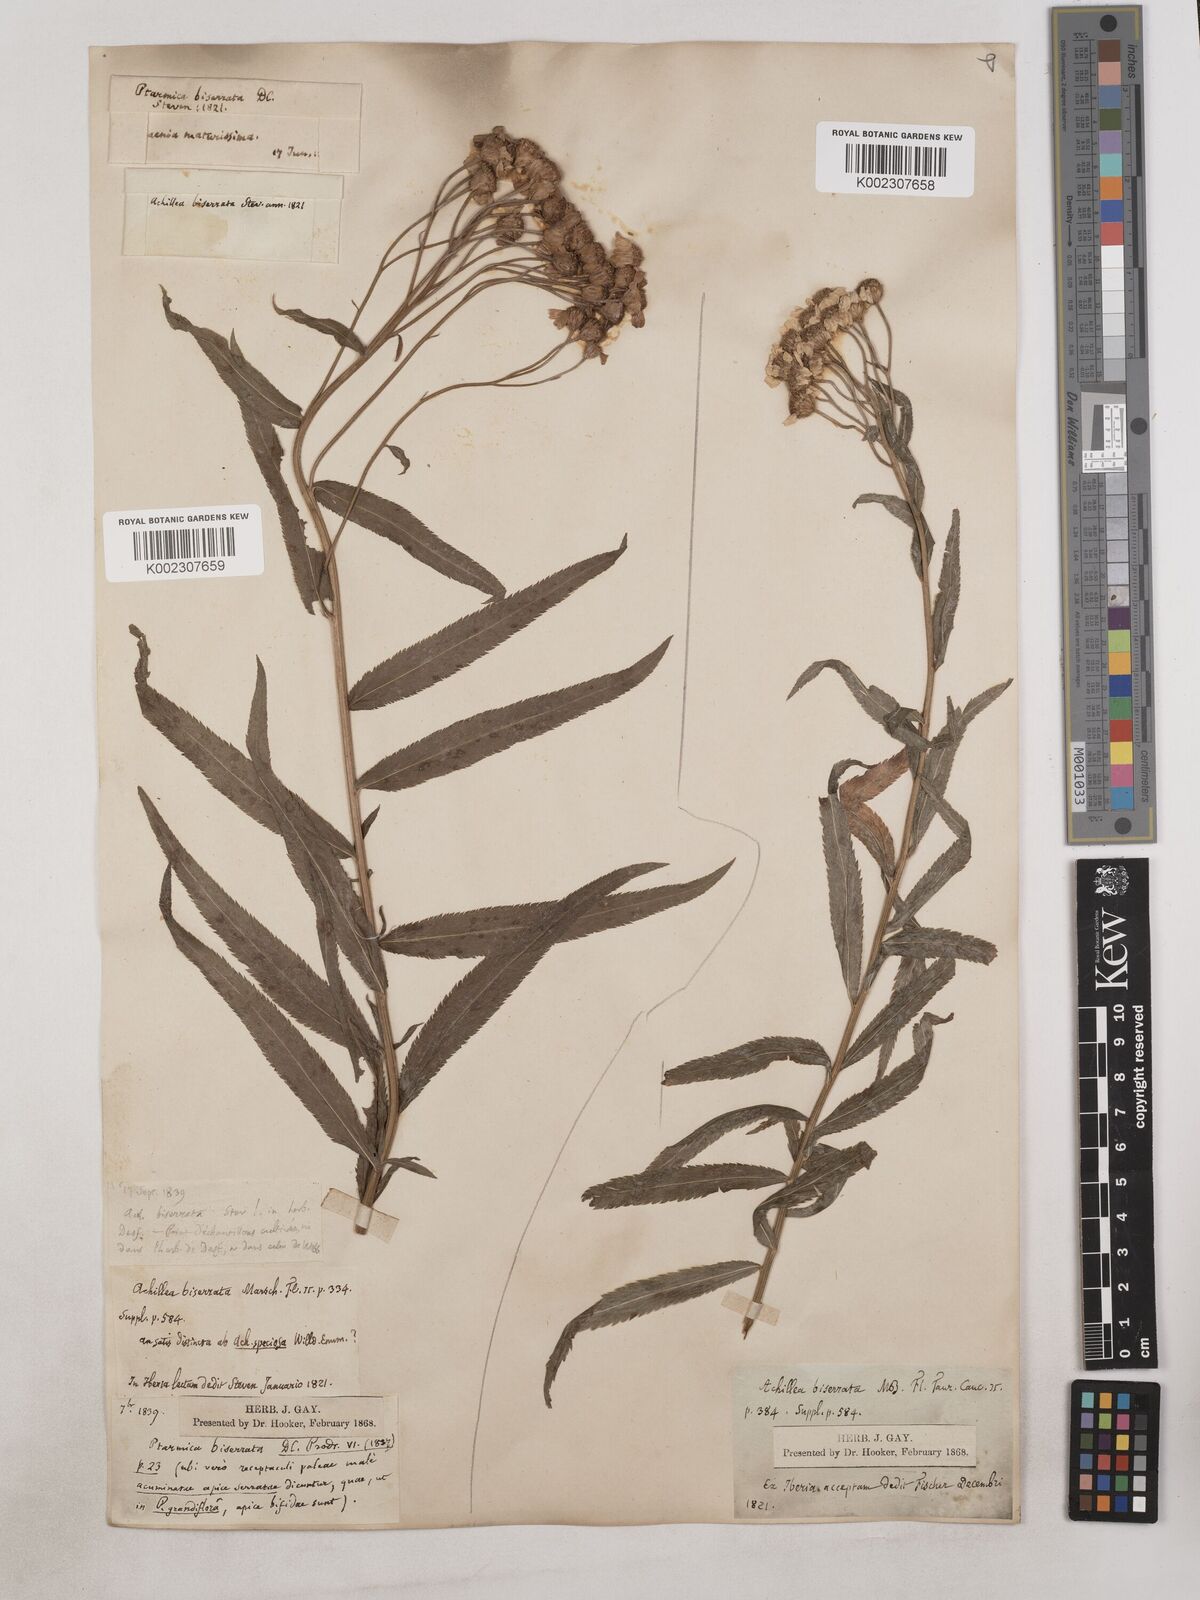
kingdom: Plantae
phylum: Tracheophyta
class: Magnoliopsida
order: Asterales
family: Asteraceae
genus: Achillea
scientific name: Achillea biserrata
